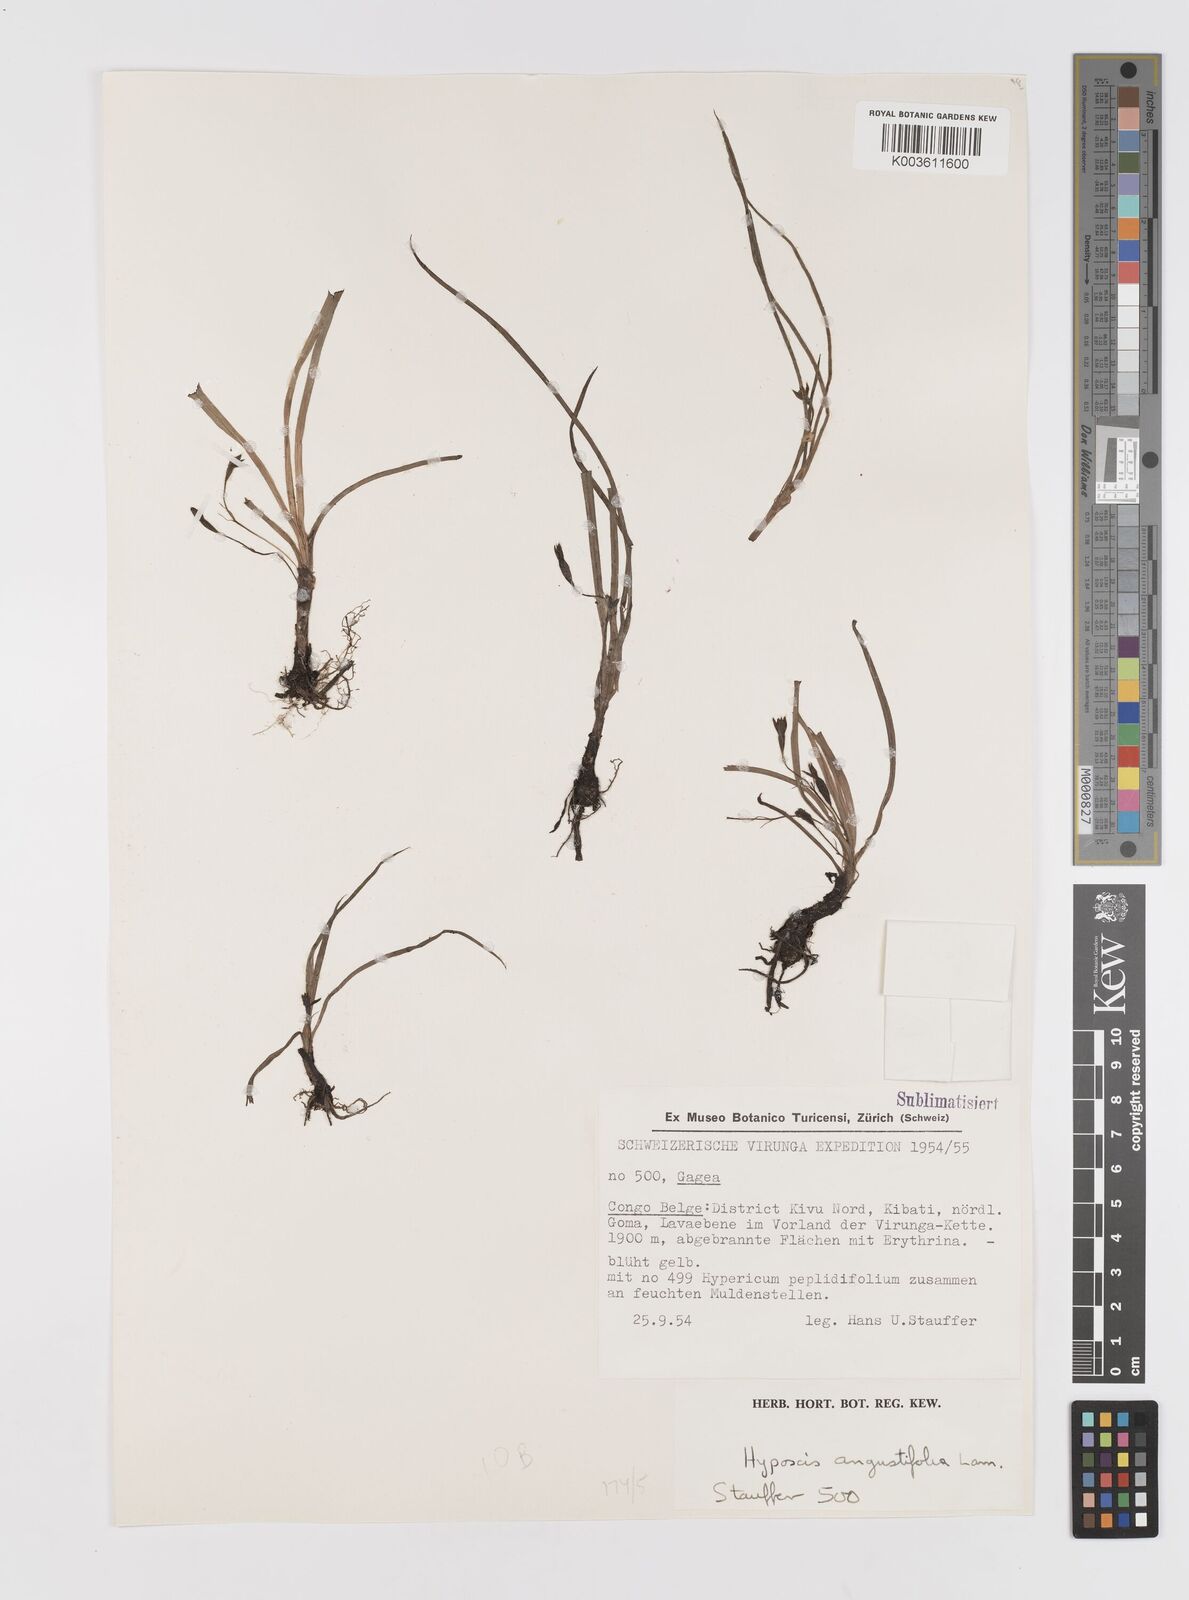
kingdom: Plantae
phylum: Tracheophyta
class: Liliopsida
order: Asparagales
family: Hypoxidaceae
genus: Hypoxis
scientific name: Hypoxis angustifolia
